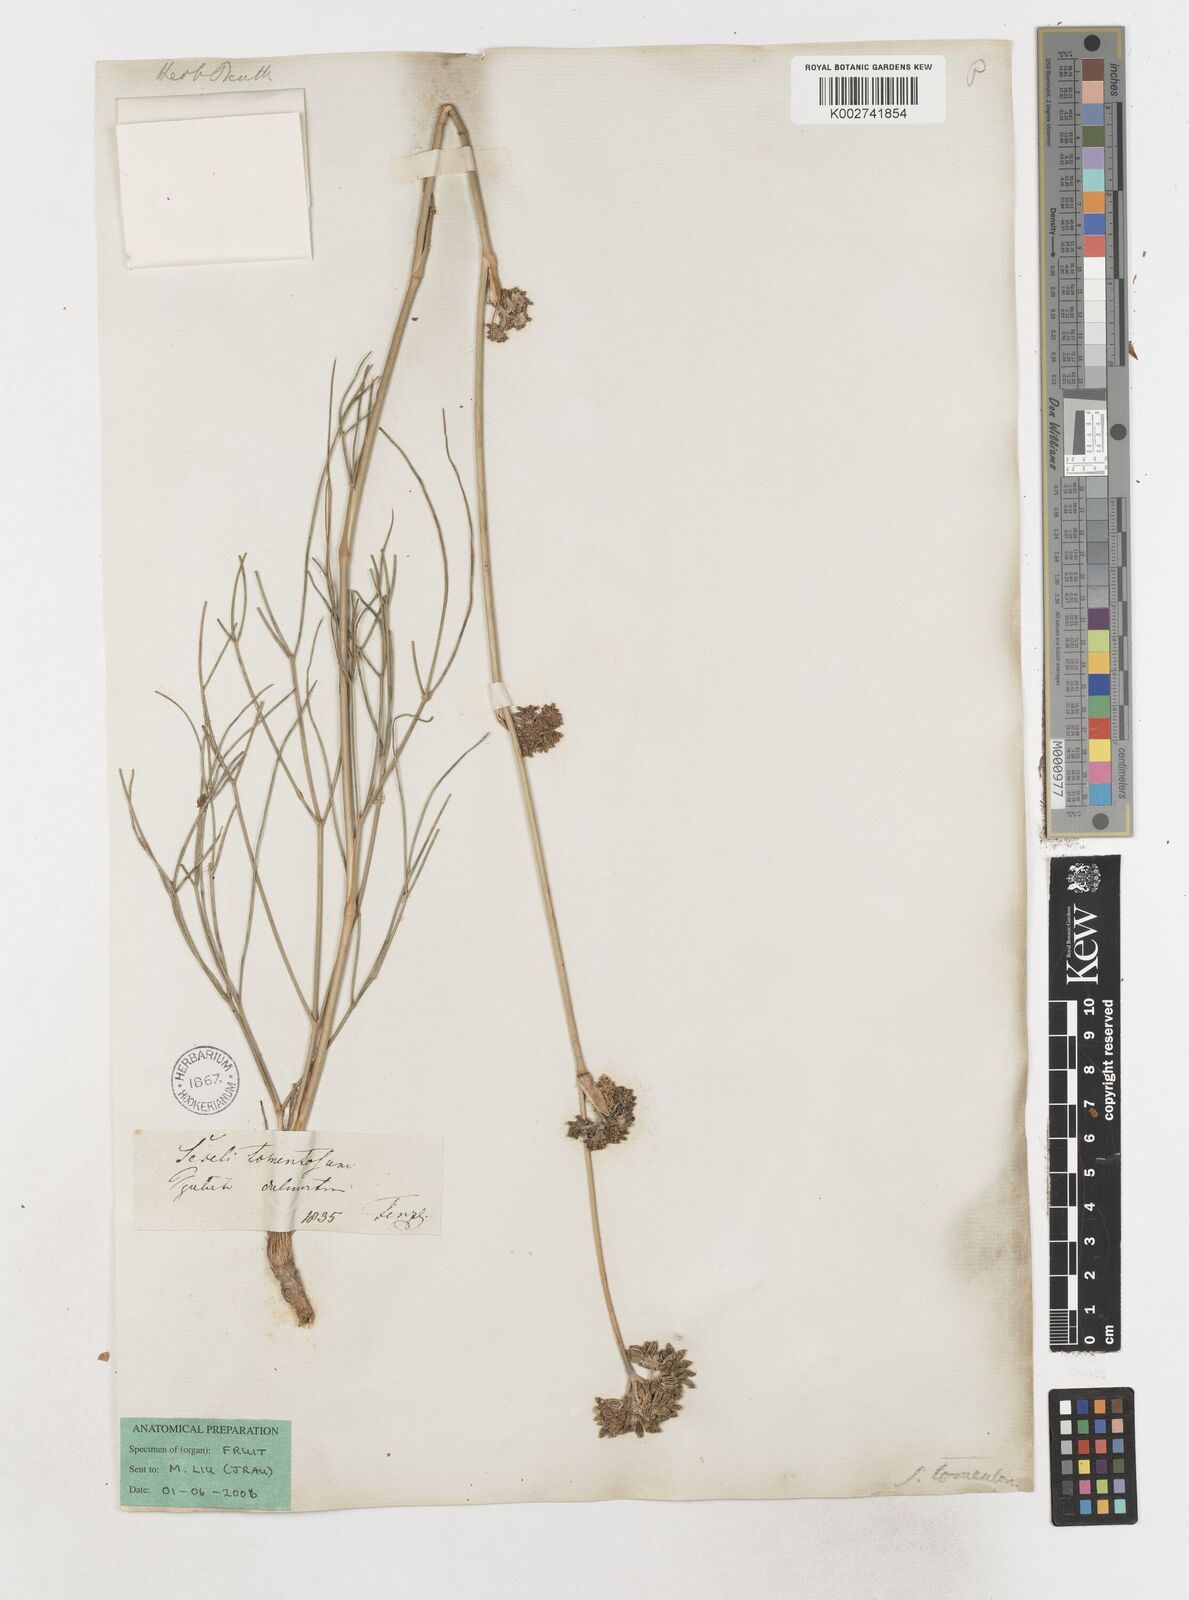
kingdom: Plantae
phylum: Tracheophyta
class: Magnoliopsida
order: Apiales
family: Apiaceae
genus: Cyathoselinum
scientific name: Cyathoselinum tomentosum
